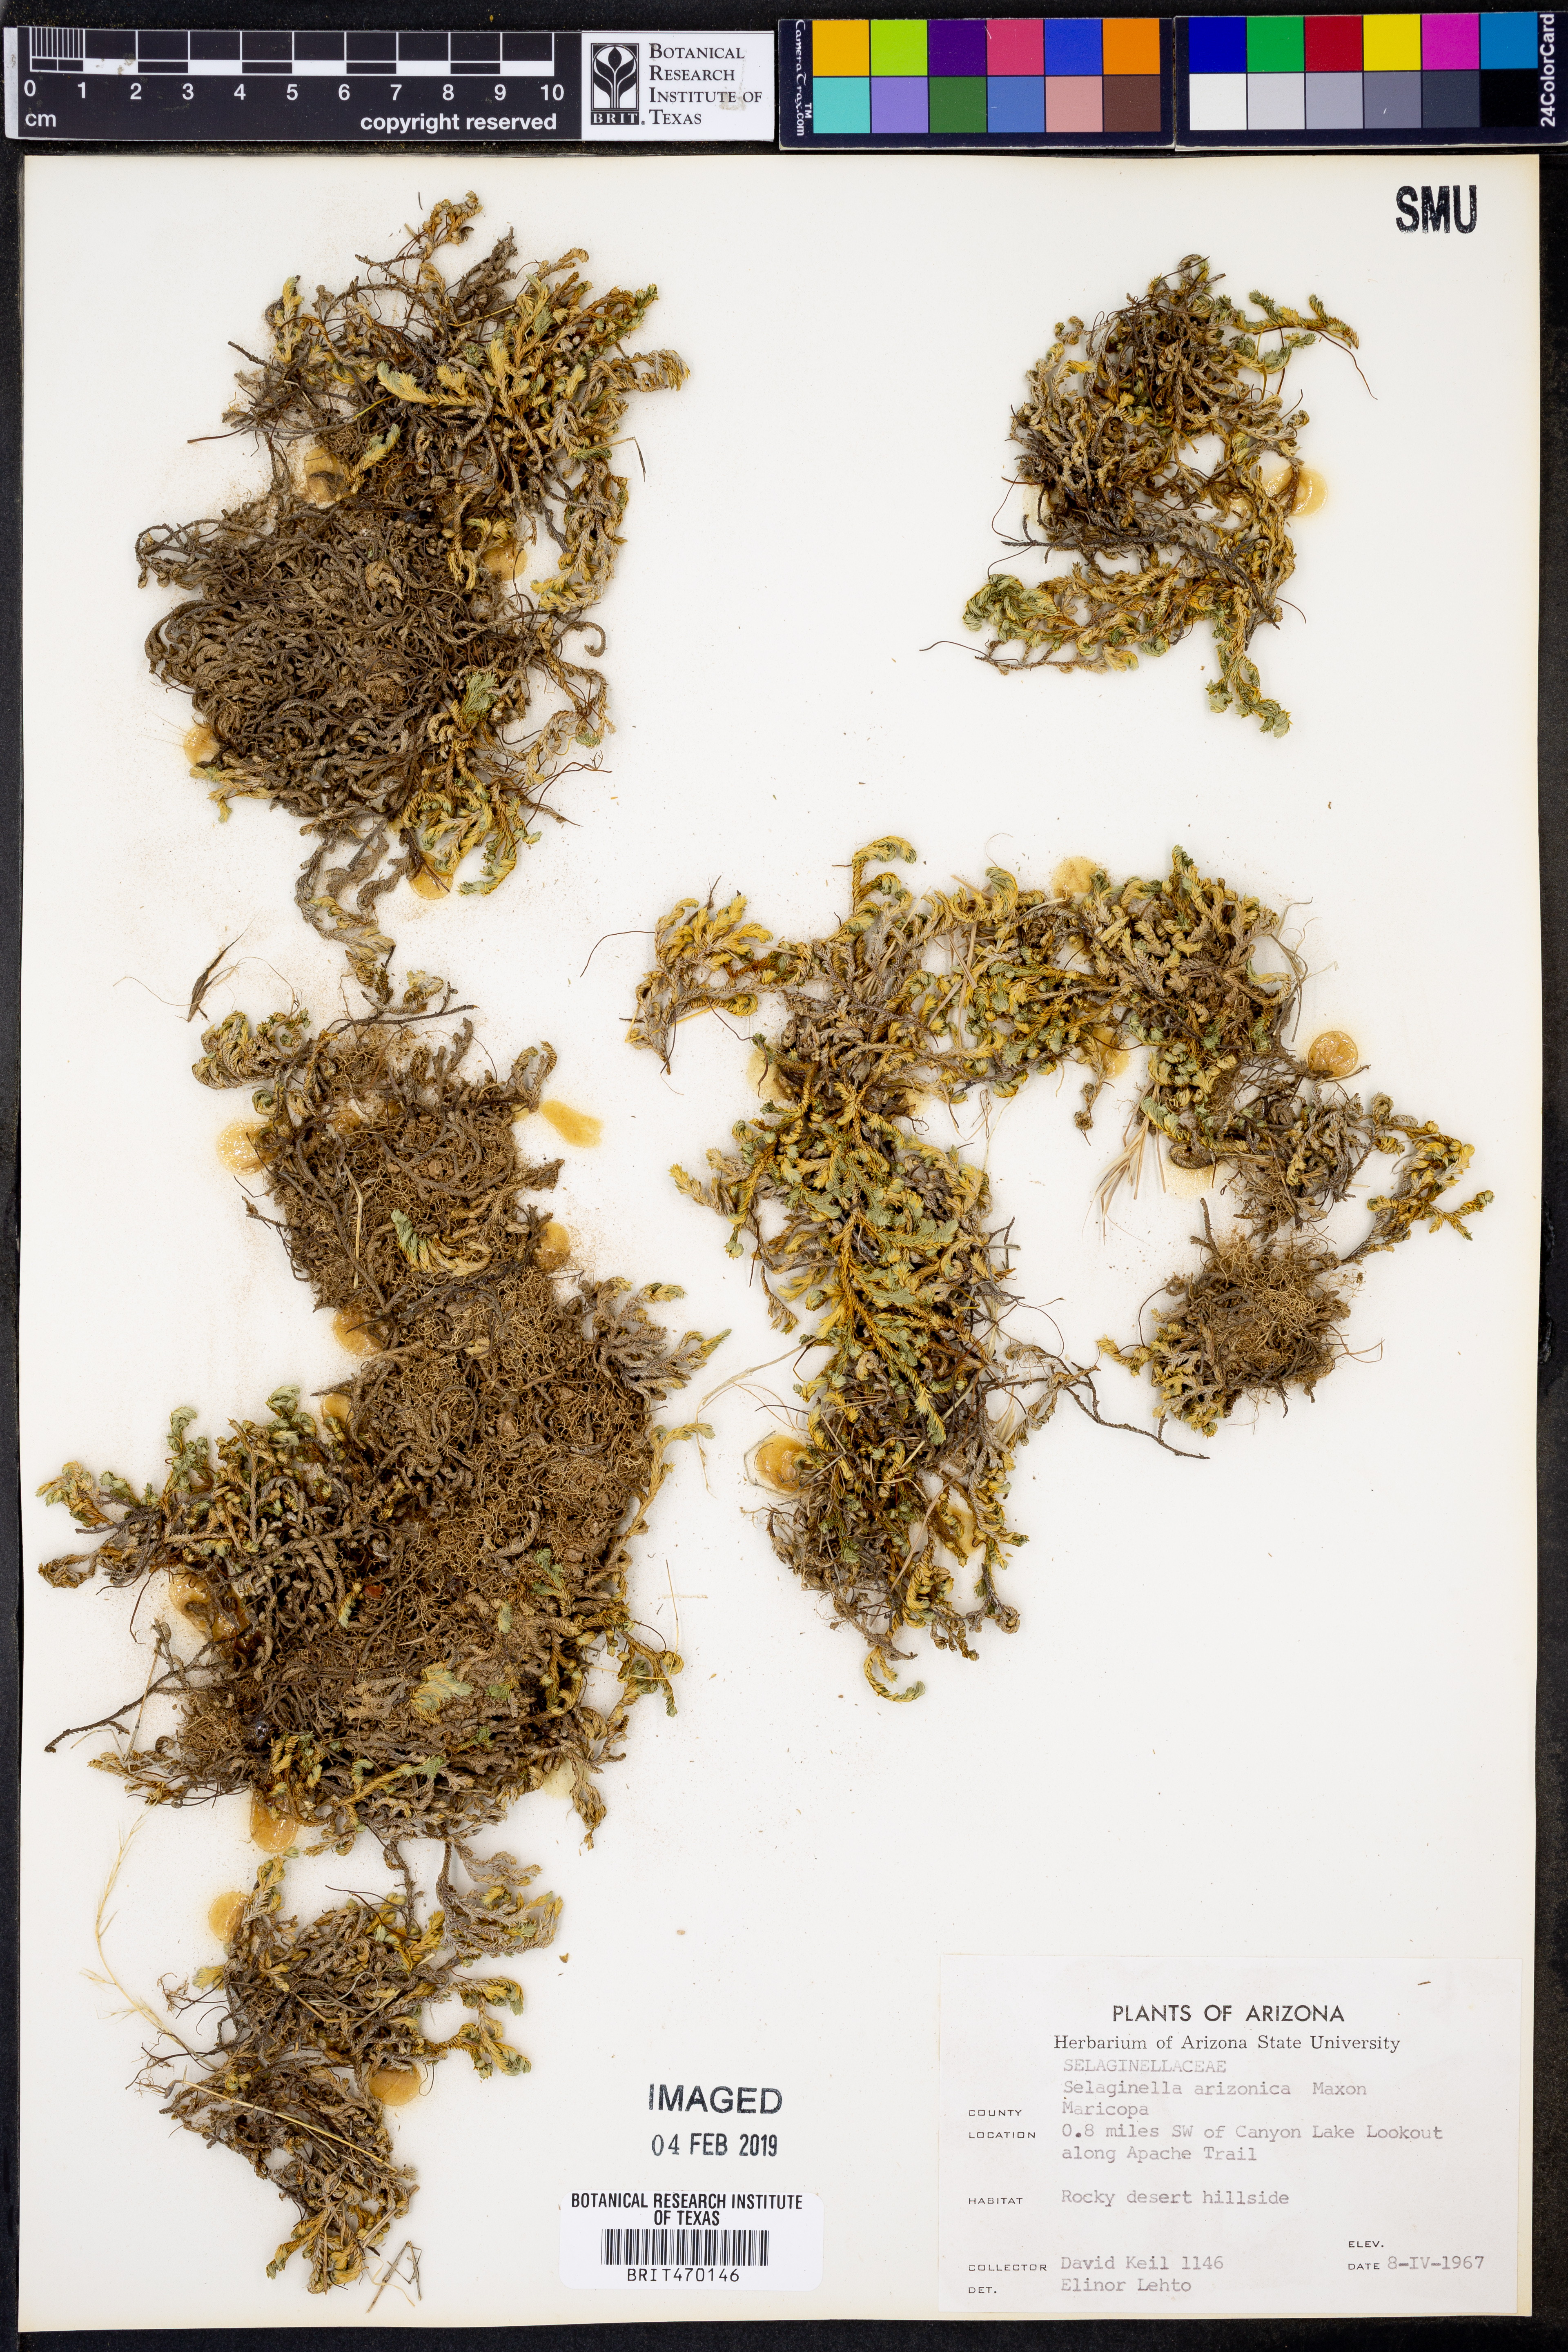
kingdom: Plantae
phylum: Tracheophyta
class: Lycopodiopsida
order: Selaginellales
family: Selaginellaceae
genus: Selaginella
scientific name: Selaginella arizonica
